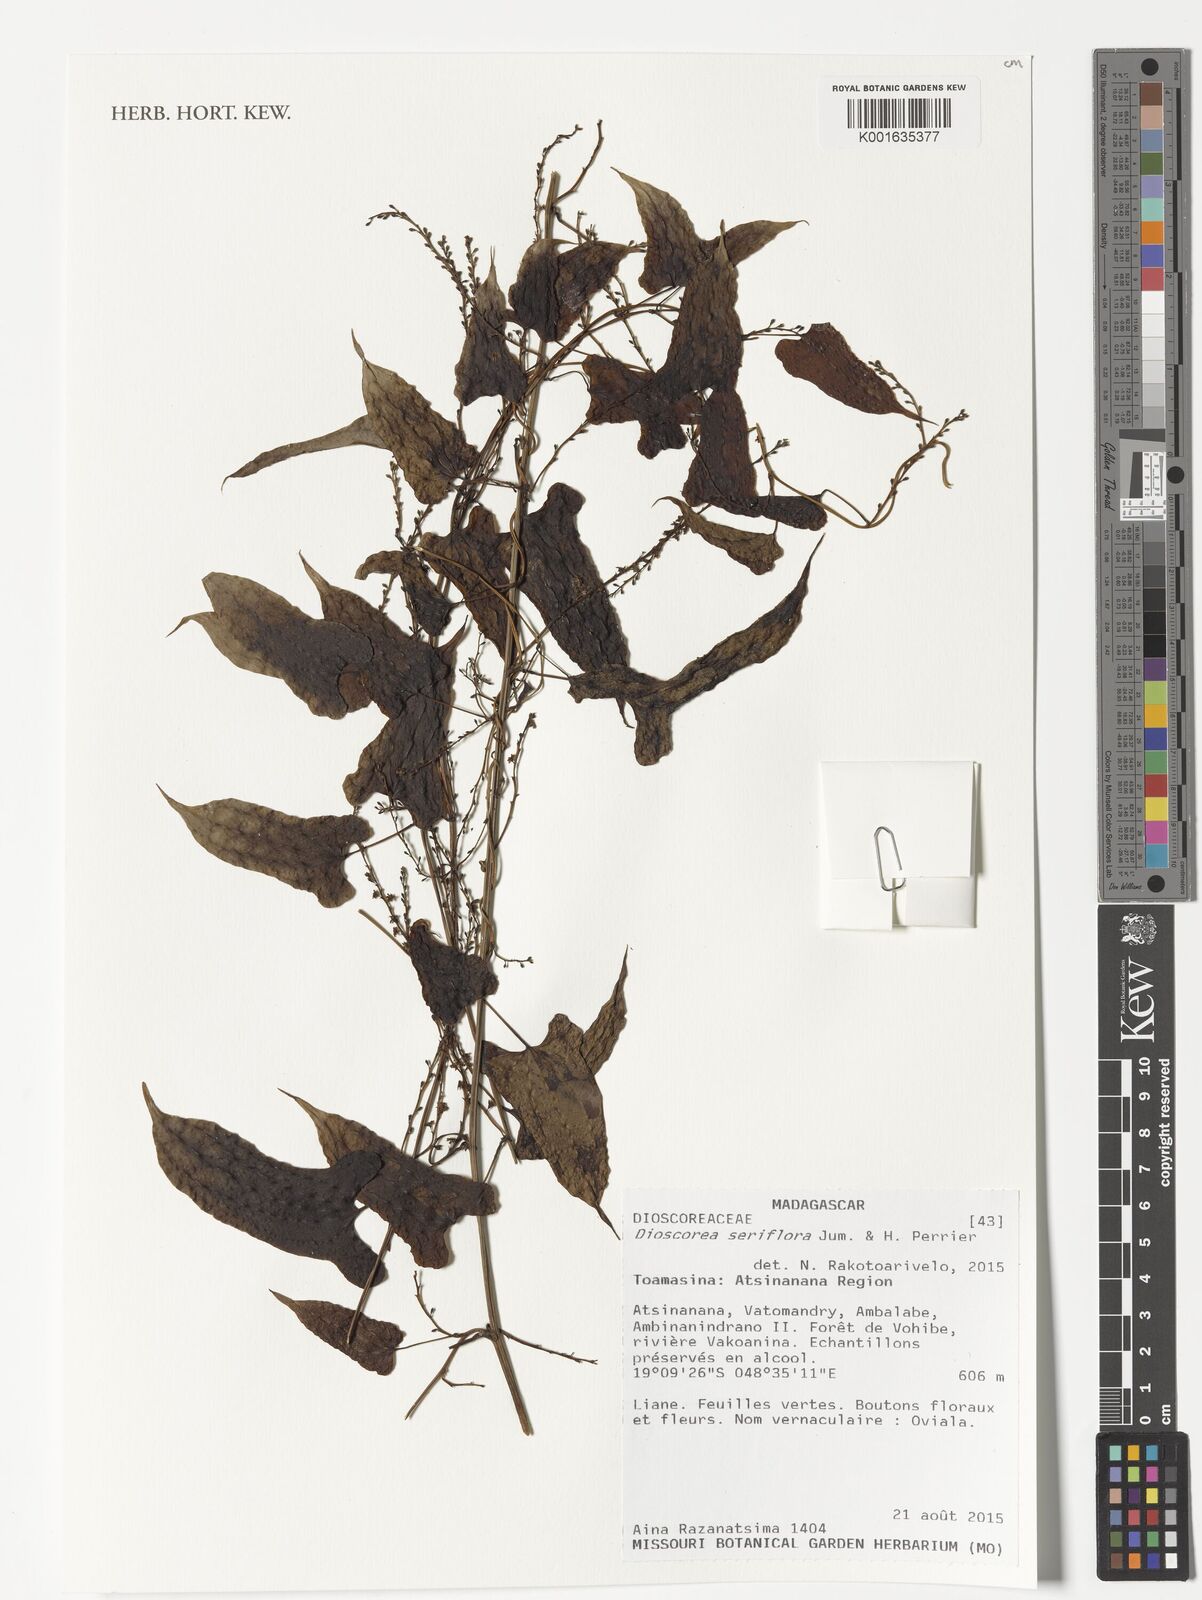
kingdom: Plantae
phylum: Tracheophyta
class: Liliopsida
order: Dioscoreales
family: Dioscoreaceae
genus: Dioscorea
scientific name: Dioscorea seriflora
